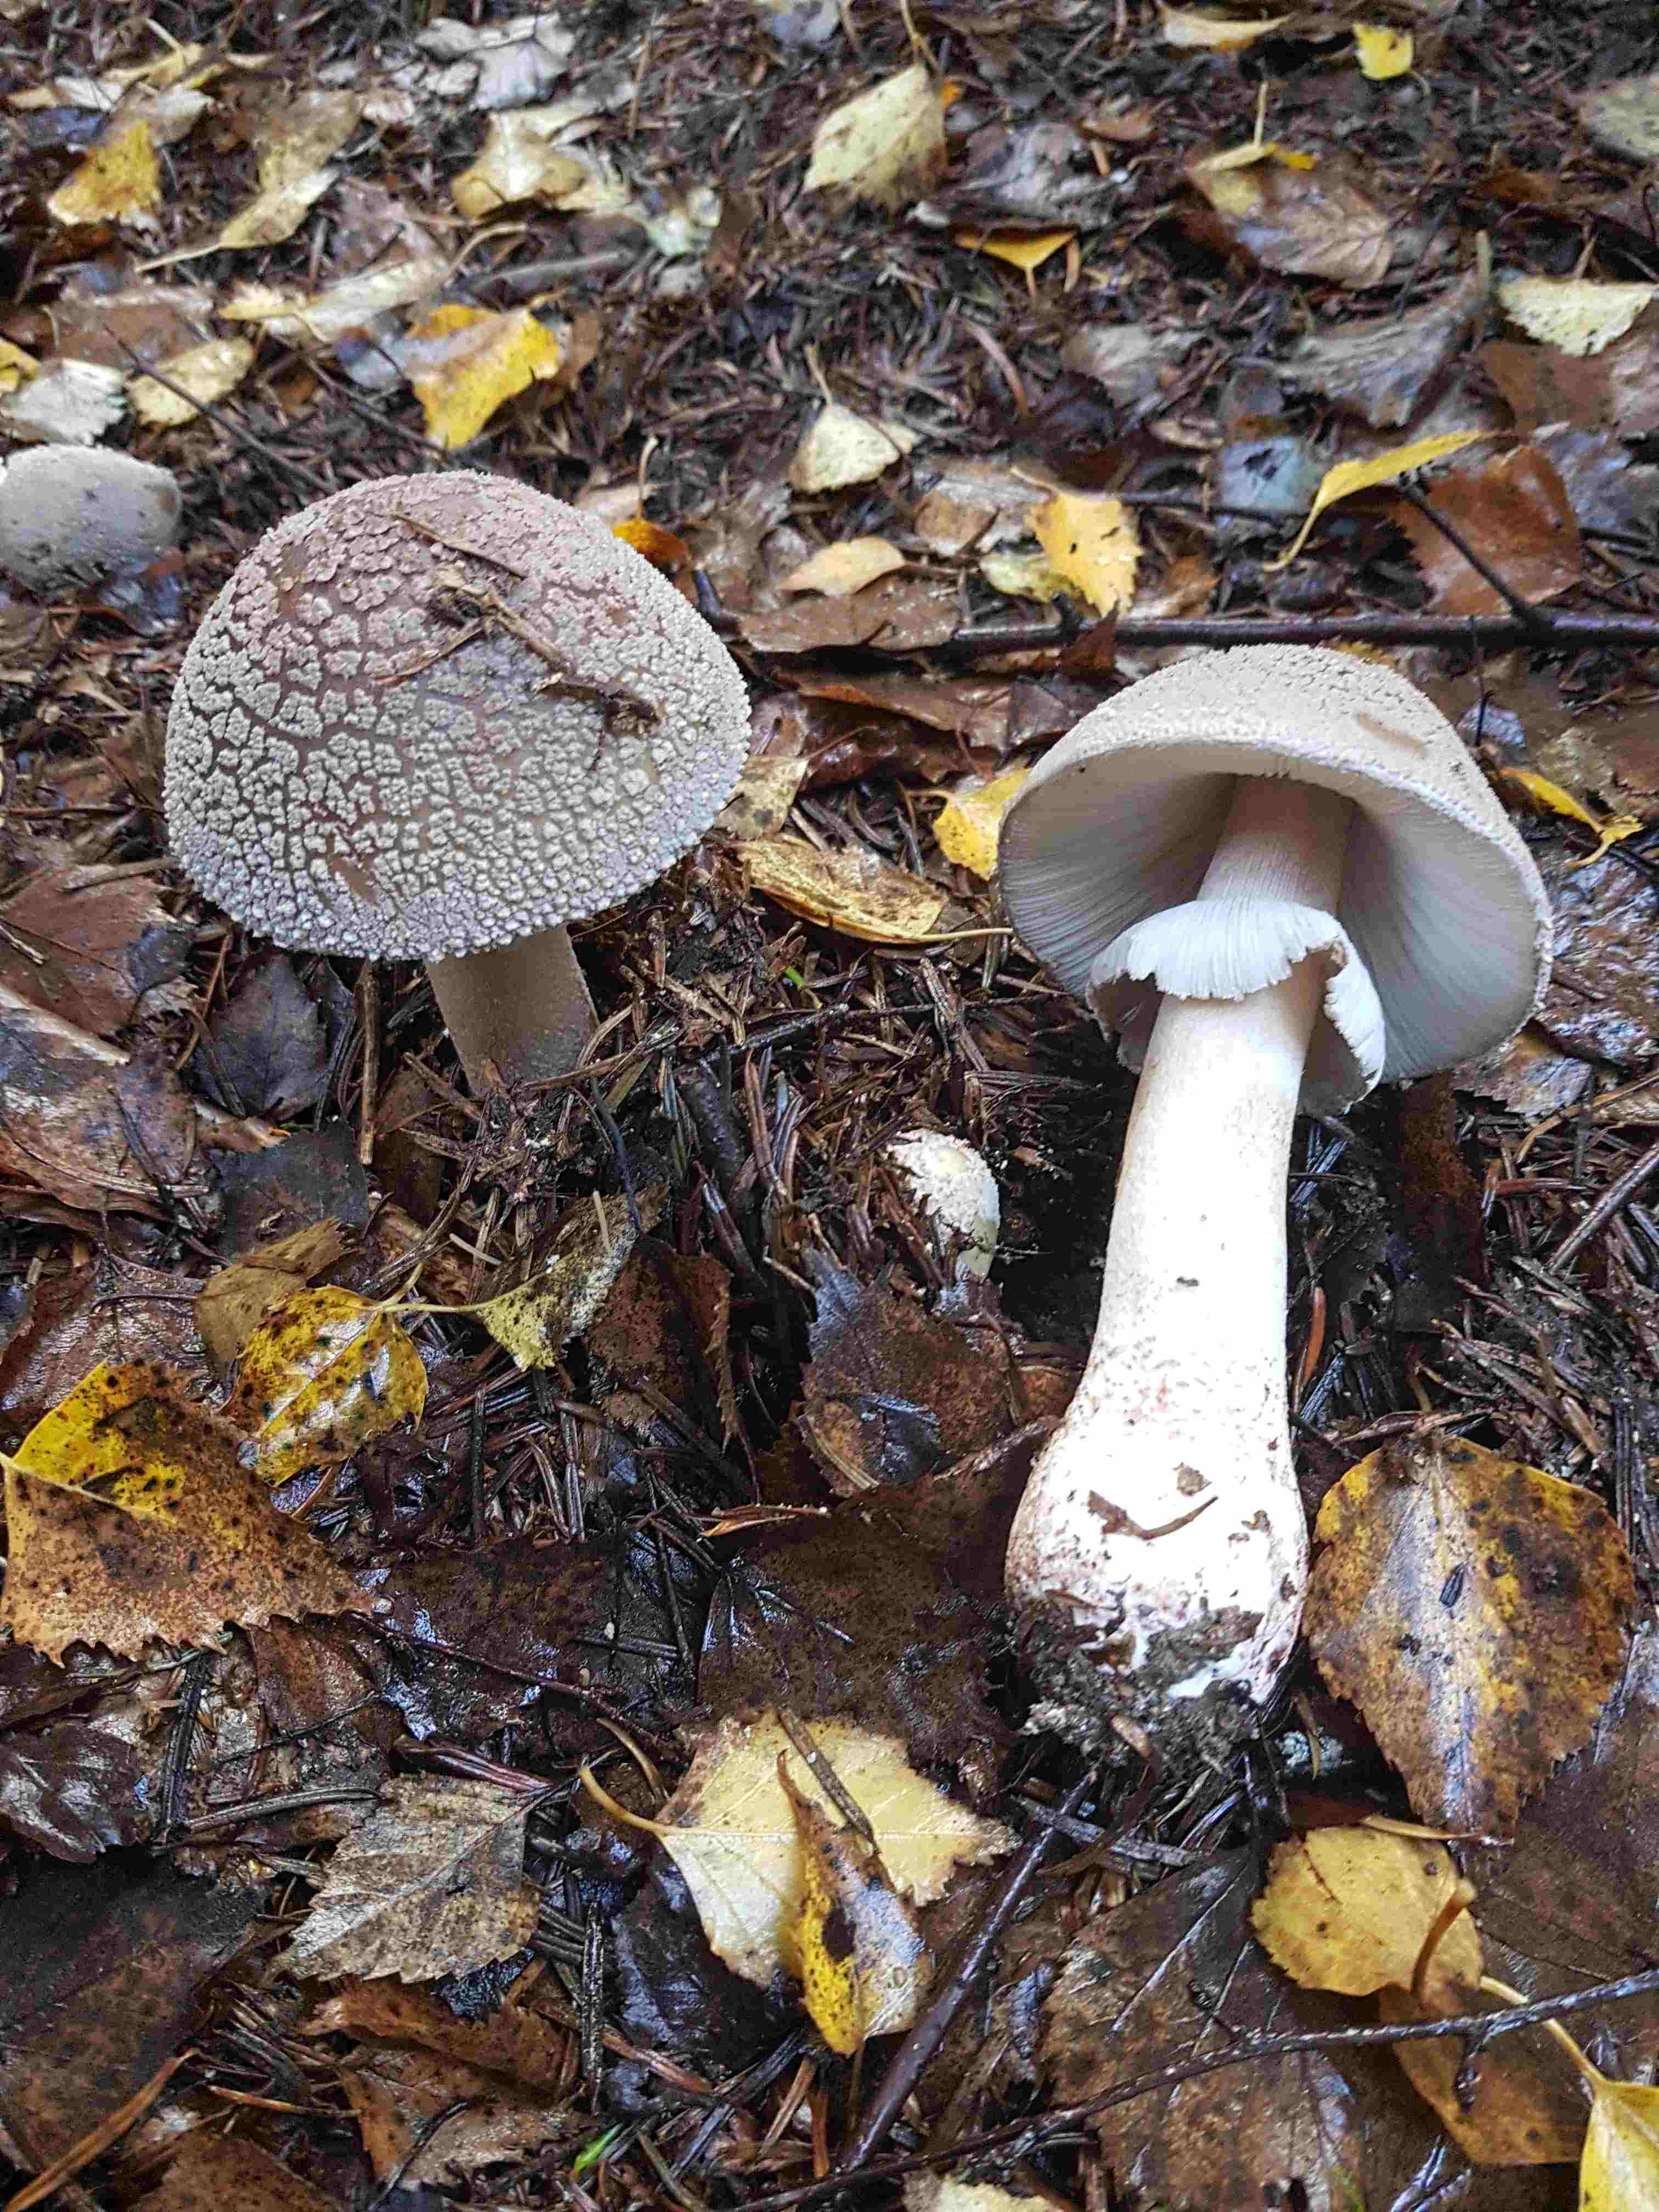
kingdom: Fungi
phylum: Basidiomycota
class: Agaricomycetes
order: Agaricales
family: Amanitaceae
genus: Amanita
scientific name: Amanita
